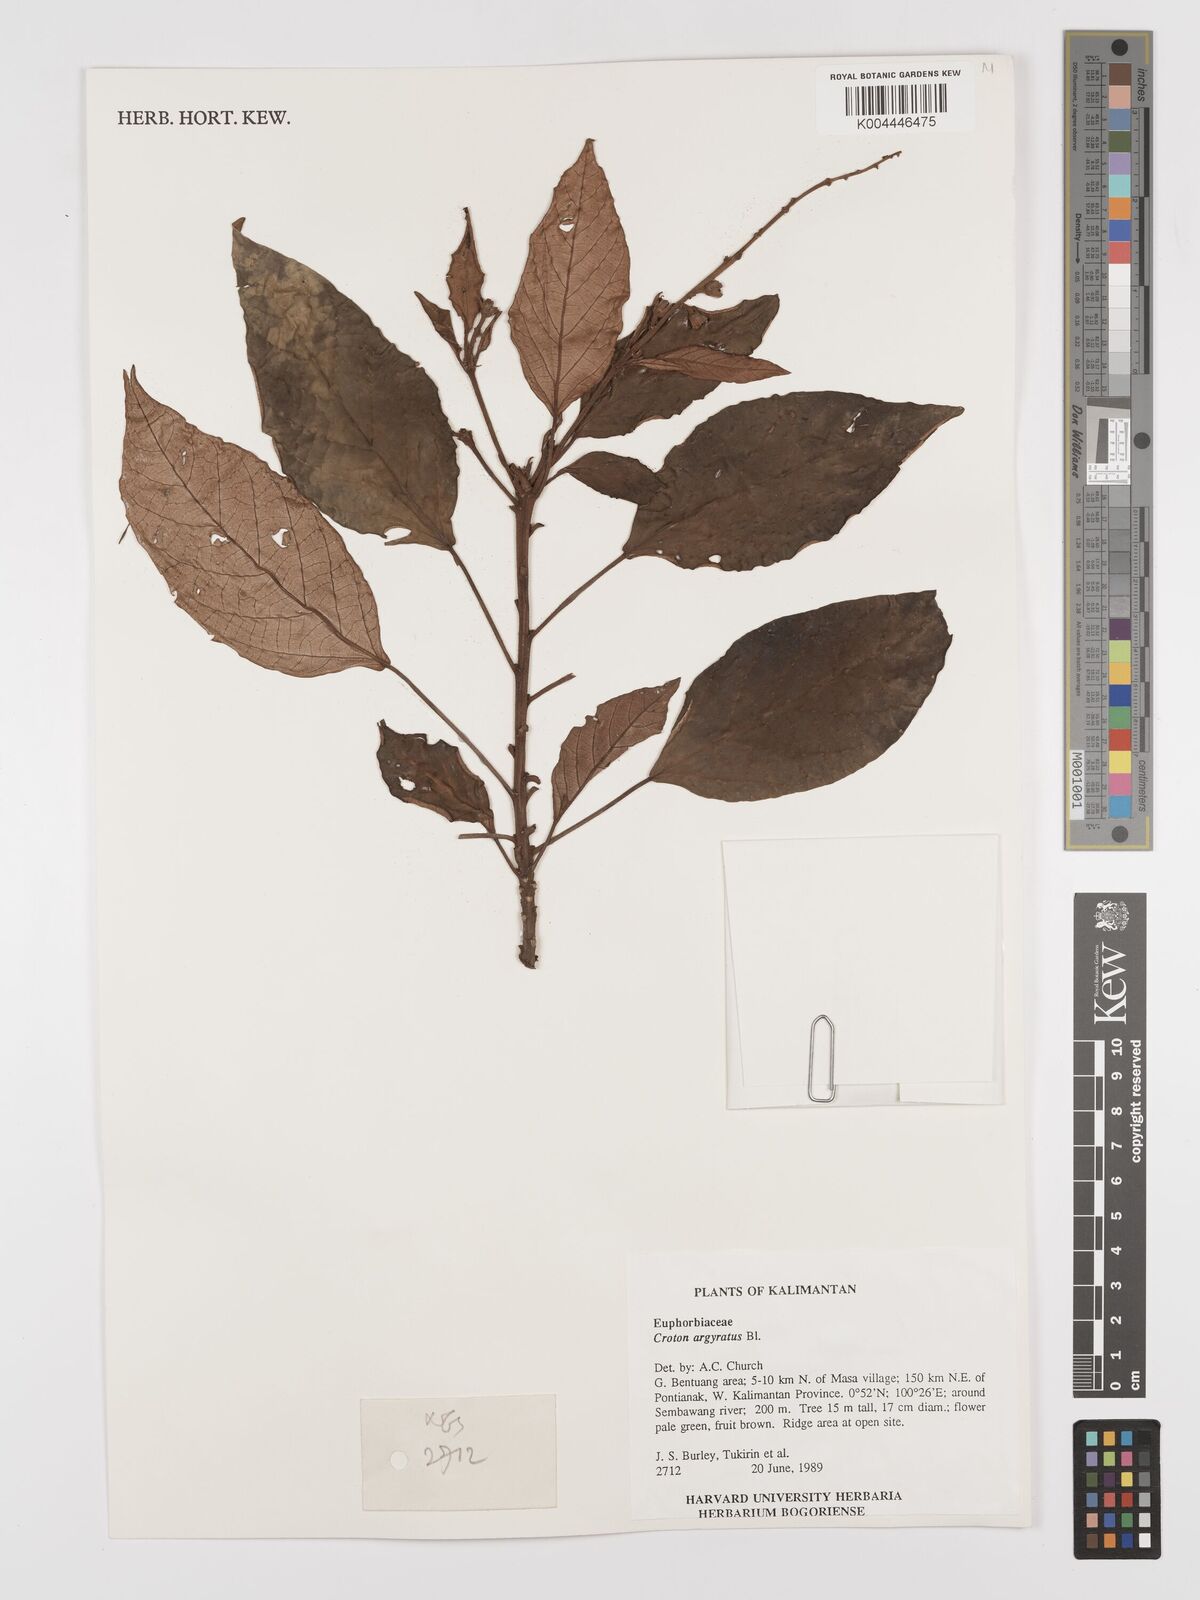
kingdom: Plantae
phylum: Tracheophyta
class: Magnoliopsida
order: Malpighiales
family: Euphorbiaceae
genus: Croton
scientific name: Croton argyratus
